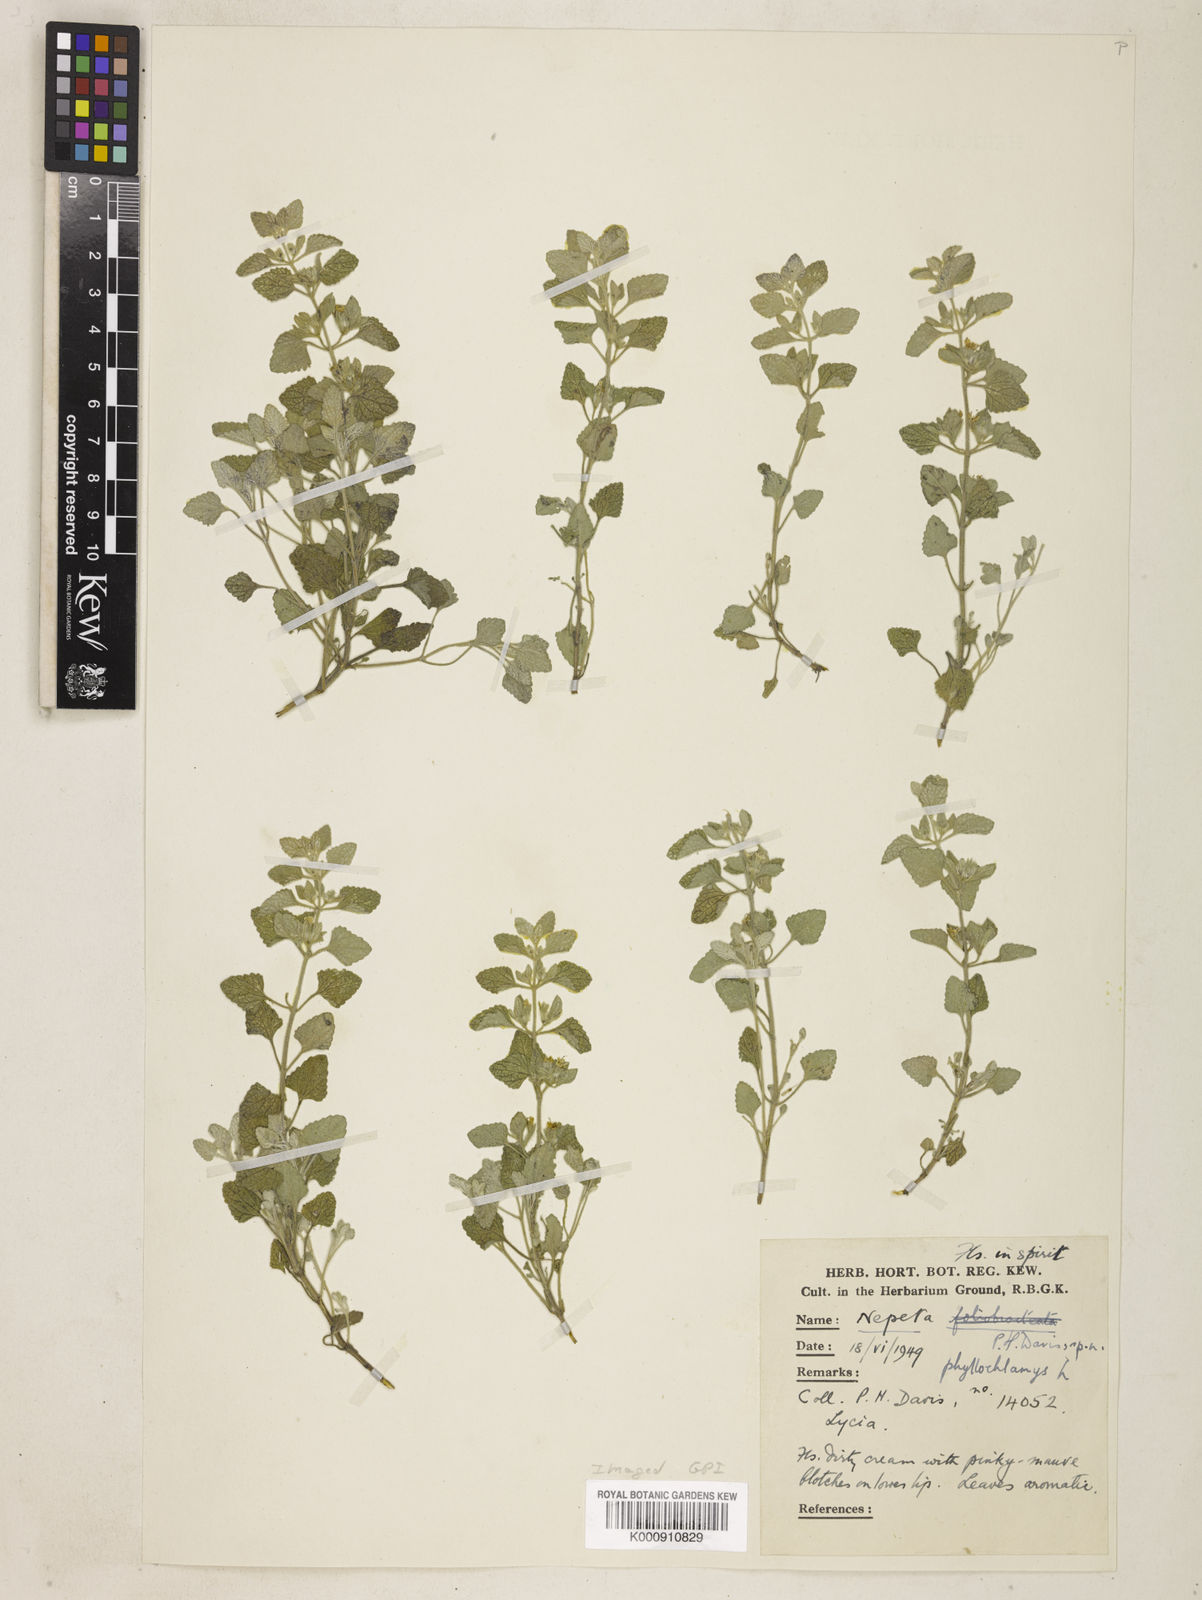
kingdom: Plantae
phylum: Tracheophyta
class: Magnoliopsida
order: Lamiales
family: Lamiaceae
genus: Nepeta
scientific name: Nepeta phyllochlamys
